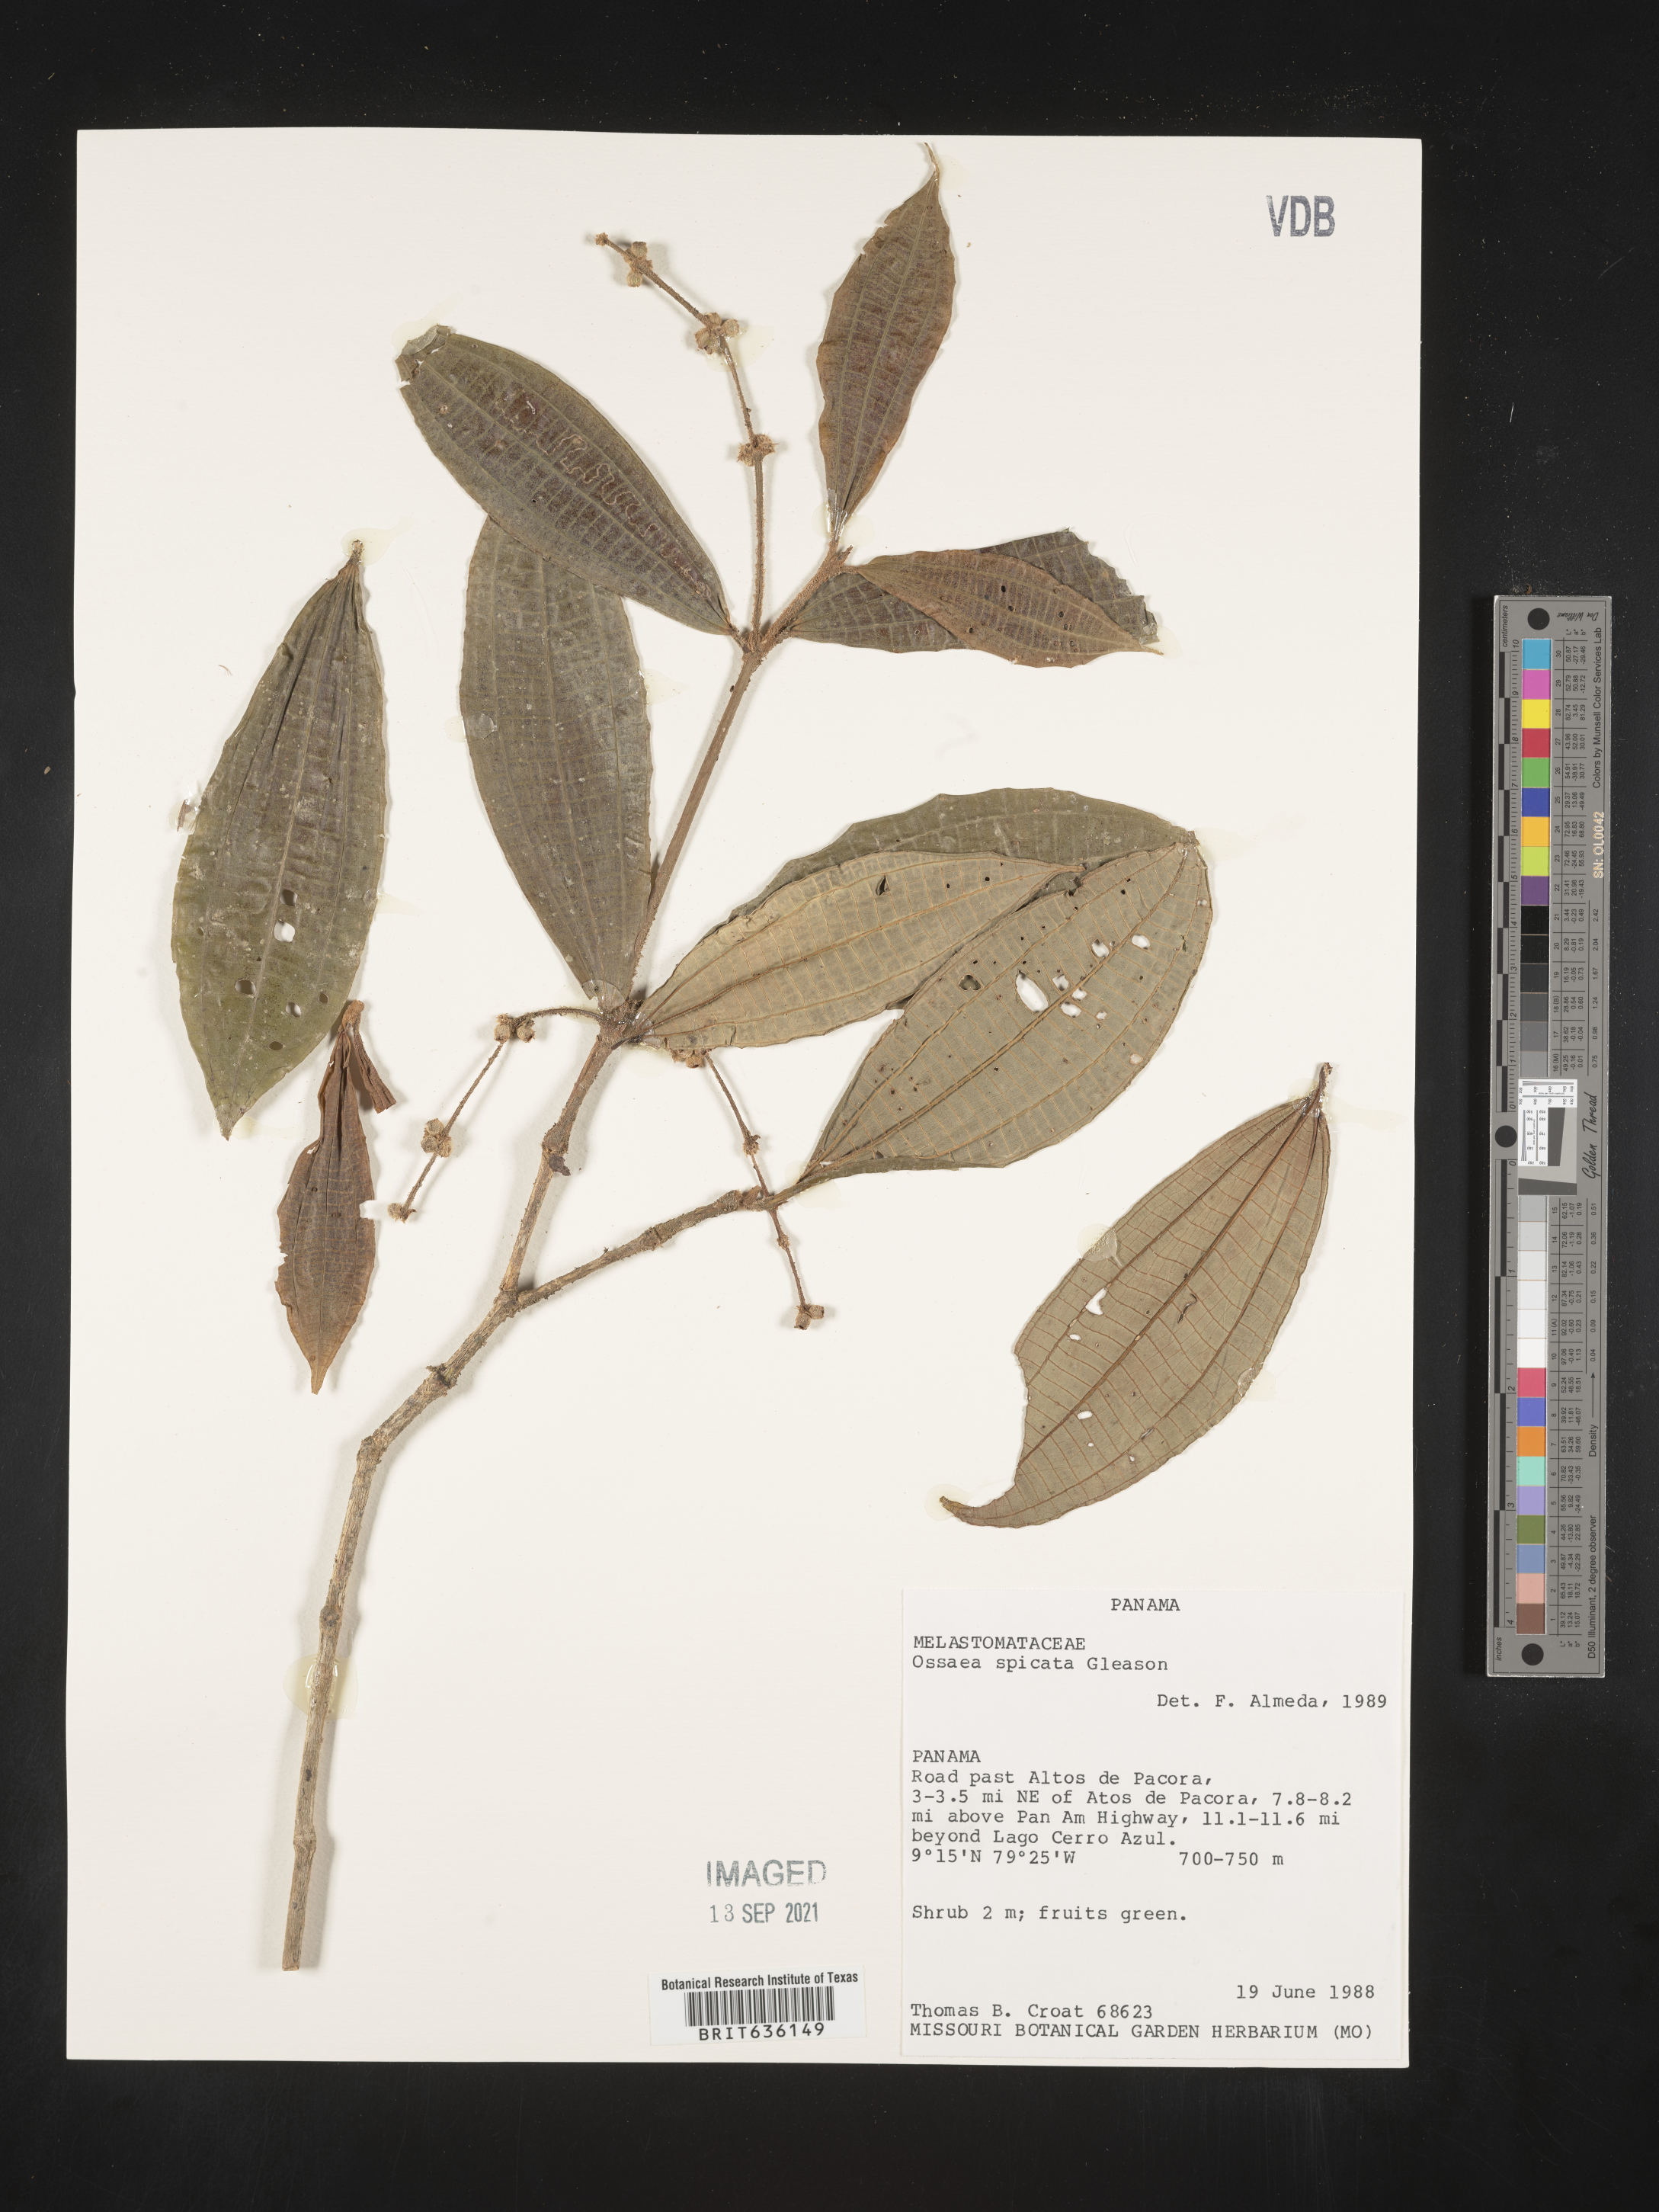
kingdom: Plantae
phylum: Tracheophyta
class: Magnoliopsida
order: Myrtales
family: Melastomataceae
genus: Miconia
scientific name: Miconia
